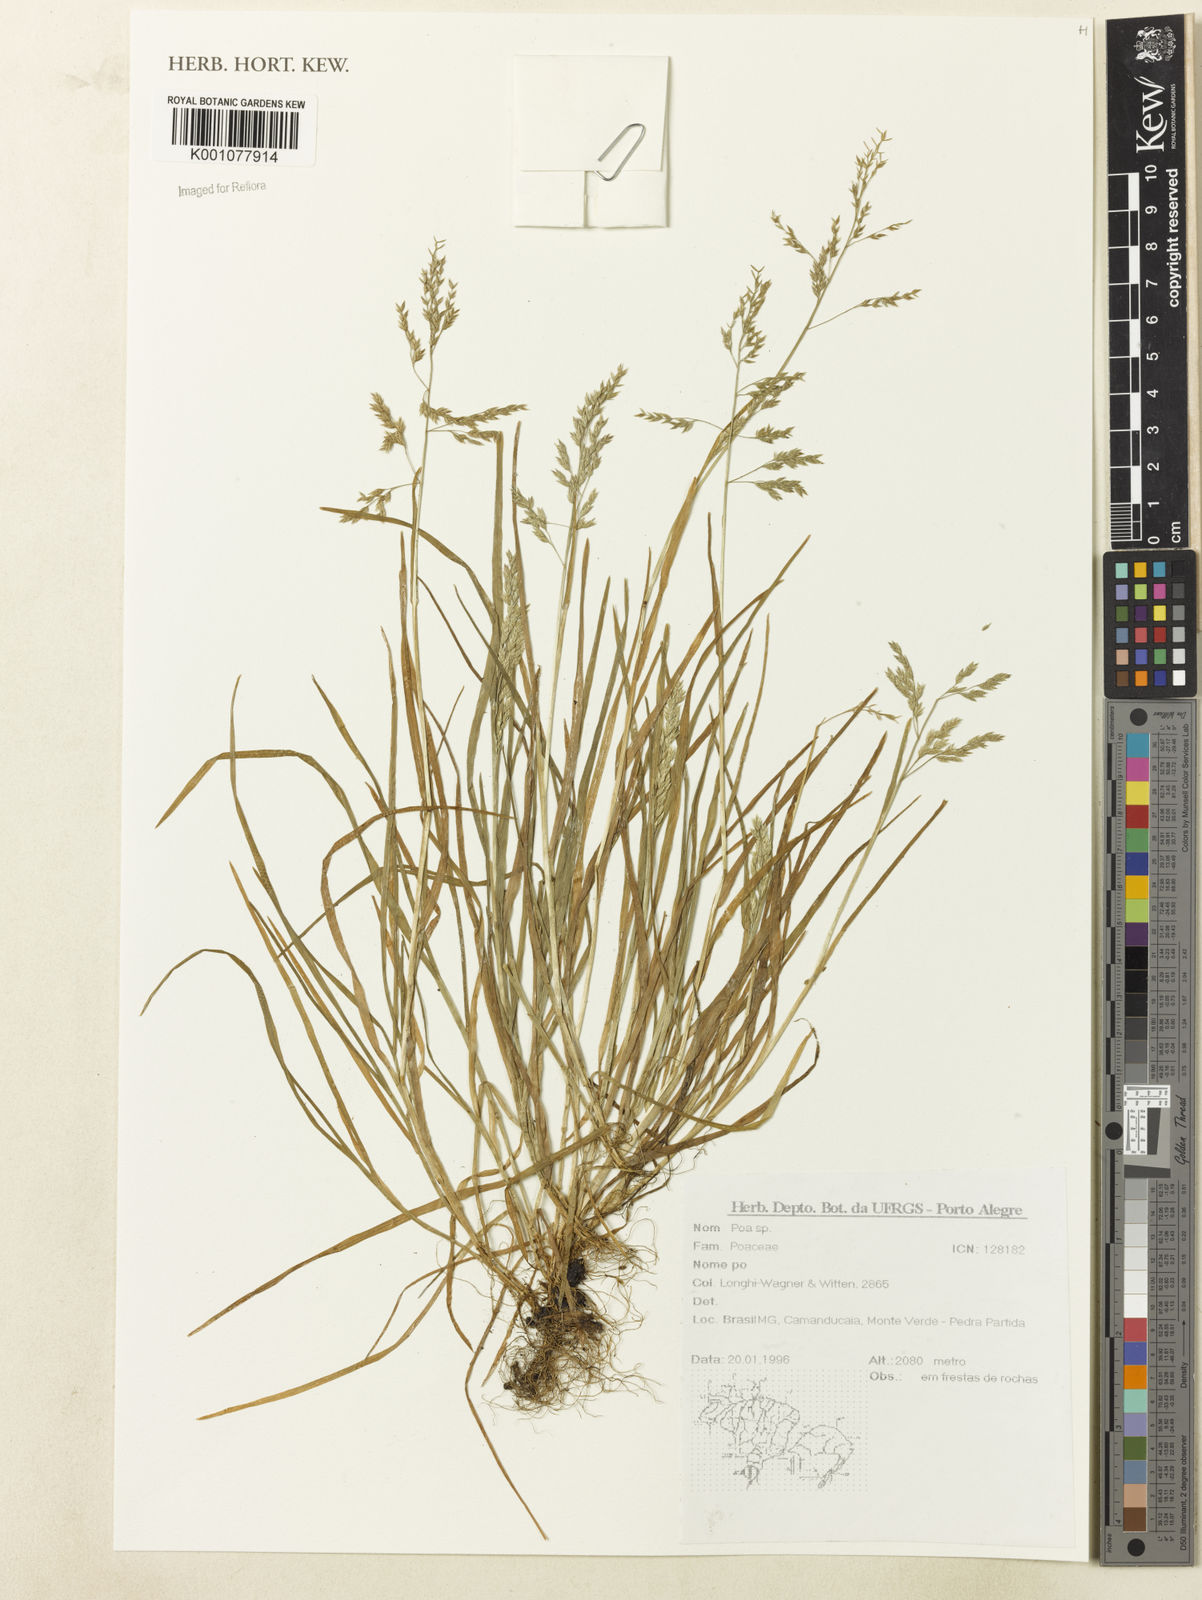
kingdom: Plantae
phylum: Tracheophyta
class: Liliopsida
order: Poales
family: Poaceae
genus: Poa
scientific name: Poa
